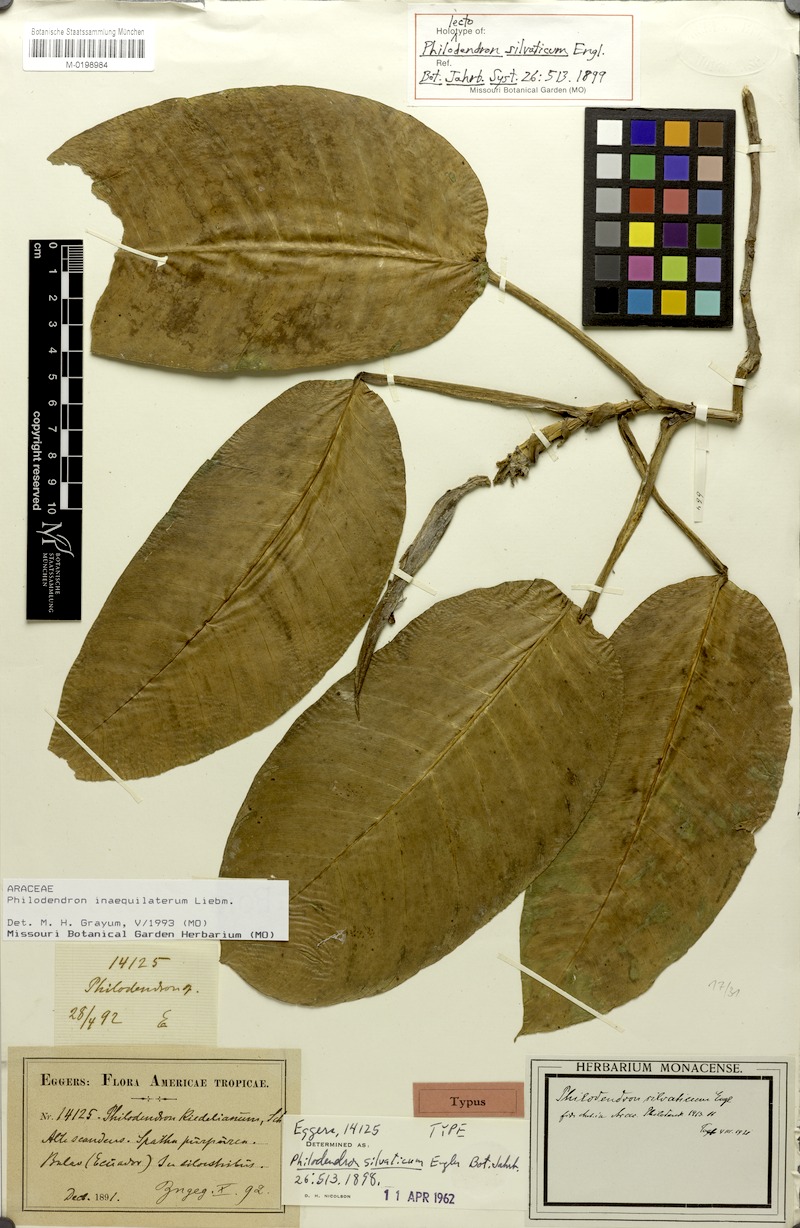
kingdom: Plantae
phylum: Tracheophyta
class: Liliopsida
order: Alismatales
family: Araceae
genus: Philodendron
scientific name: Philodendron inaequilaterum
